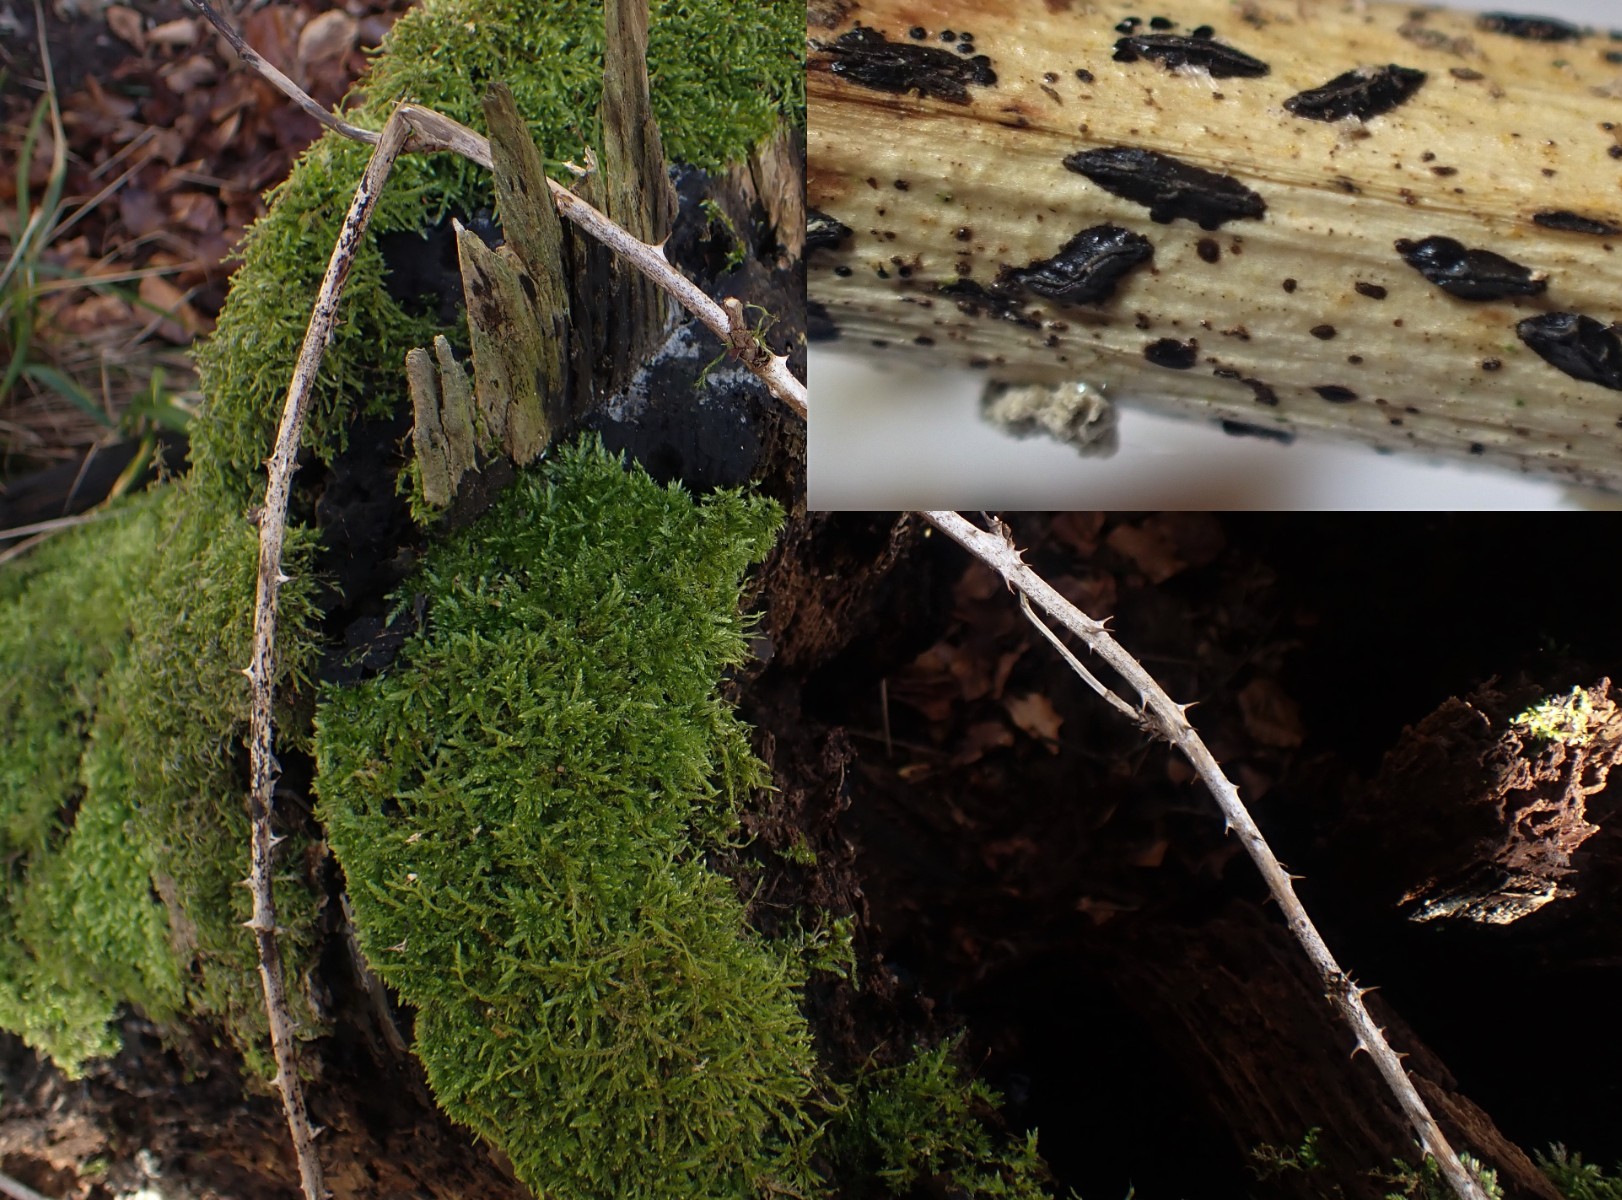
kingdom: Fungi
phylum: Ascomycota
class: Leotiomycetes
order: Rhytismatales
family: Rhytismataceae
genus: Hypoderma
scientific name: Hypoderma rubi
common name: brombær-fureplet
